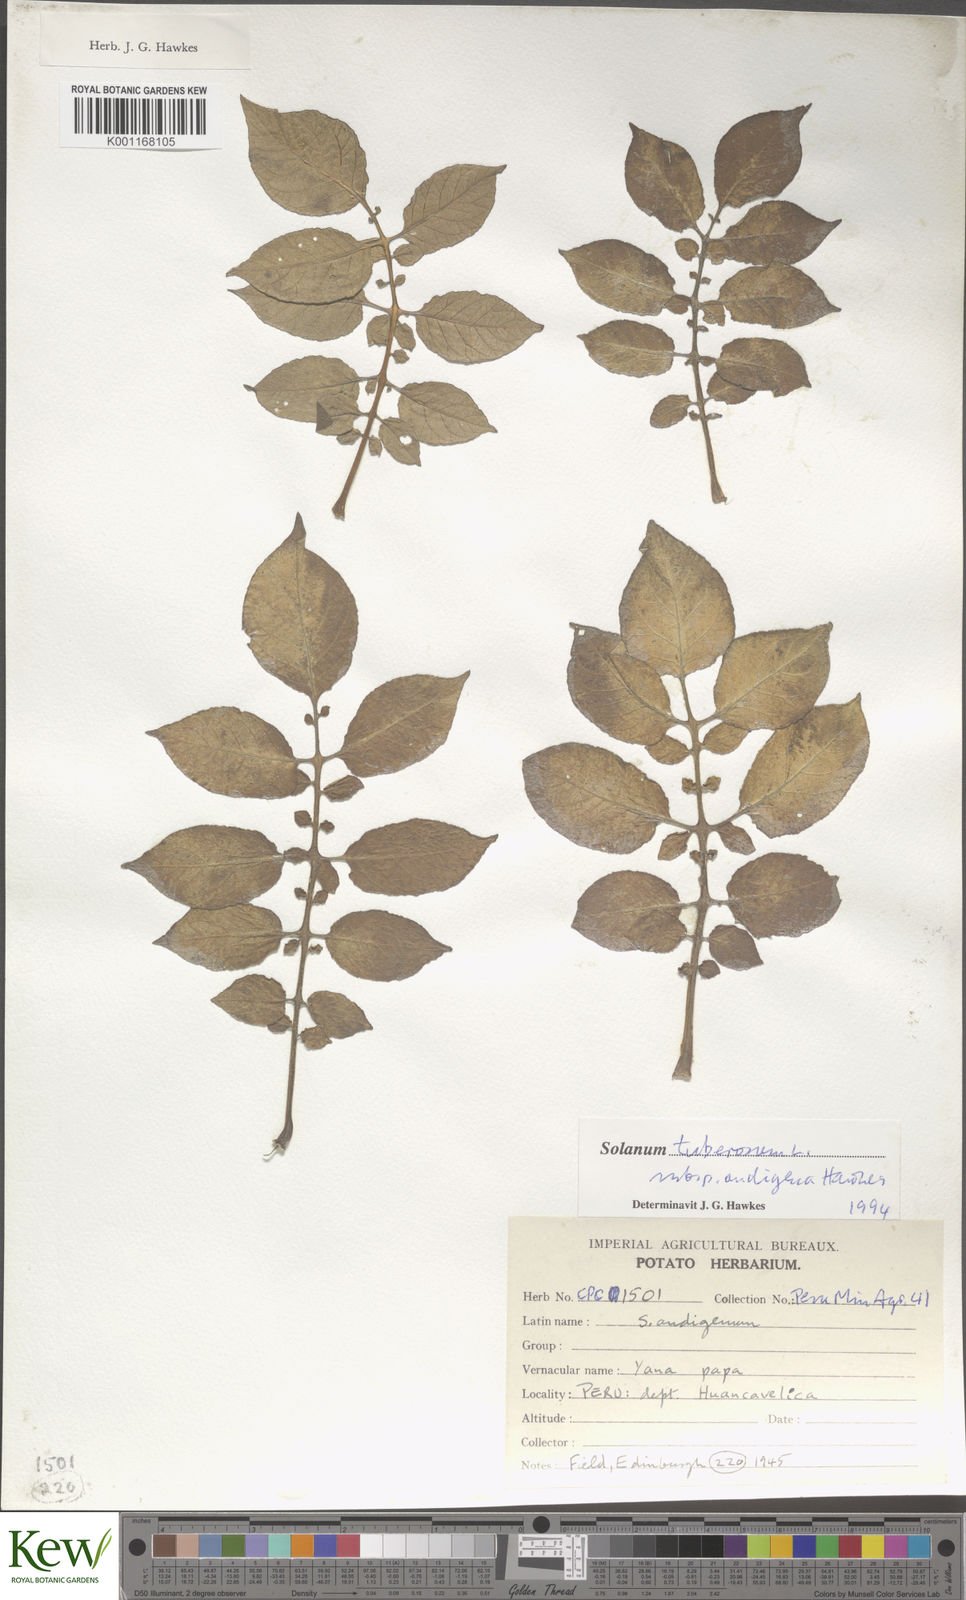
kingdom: Plantae
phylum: Tracheophyta
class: Magnoliopsida
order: Solanales
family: Solanaceae
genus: Solanum
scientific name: Solanum tuberosum
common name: Potato
